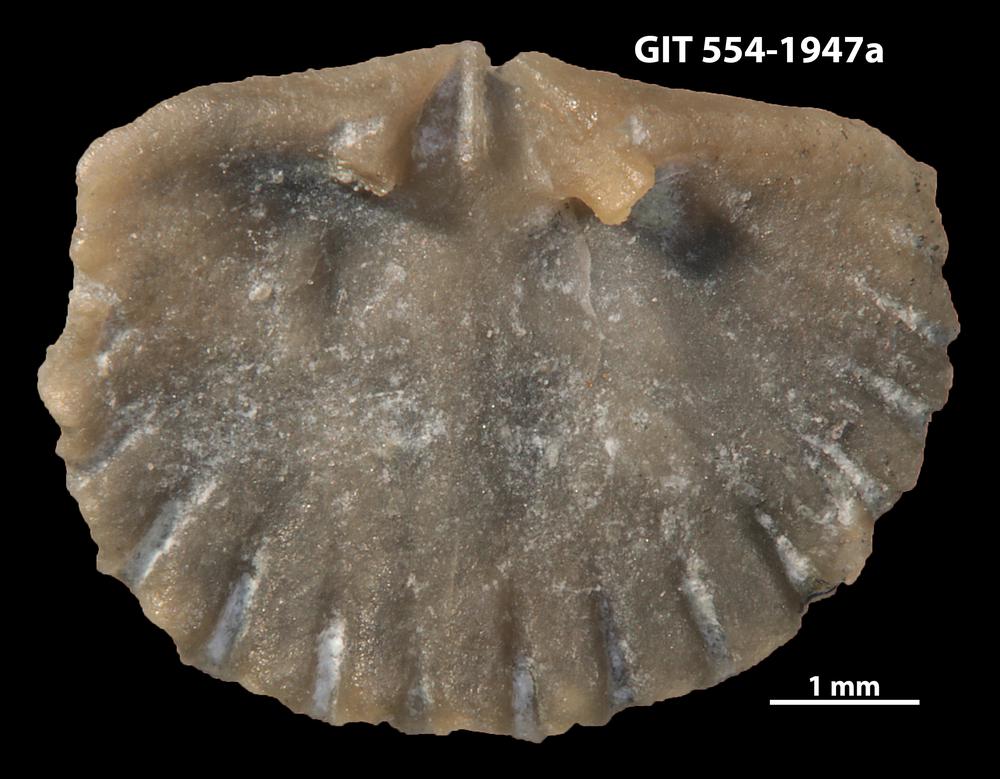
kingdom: Animalia
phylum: Brachiopoda
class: Rhynchonellata
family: Dolerorthidae
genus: Hesperorthis
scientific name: Hesperorthis hillistensis
